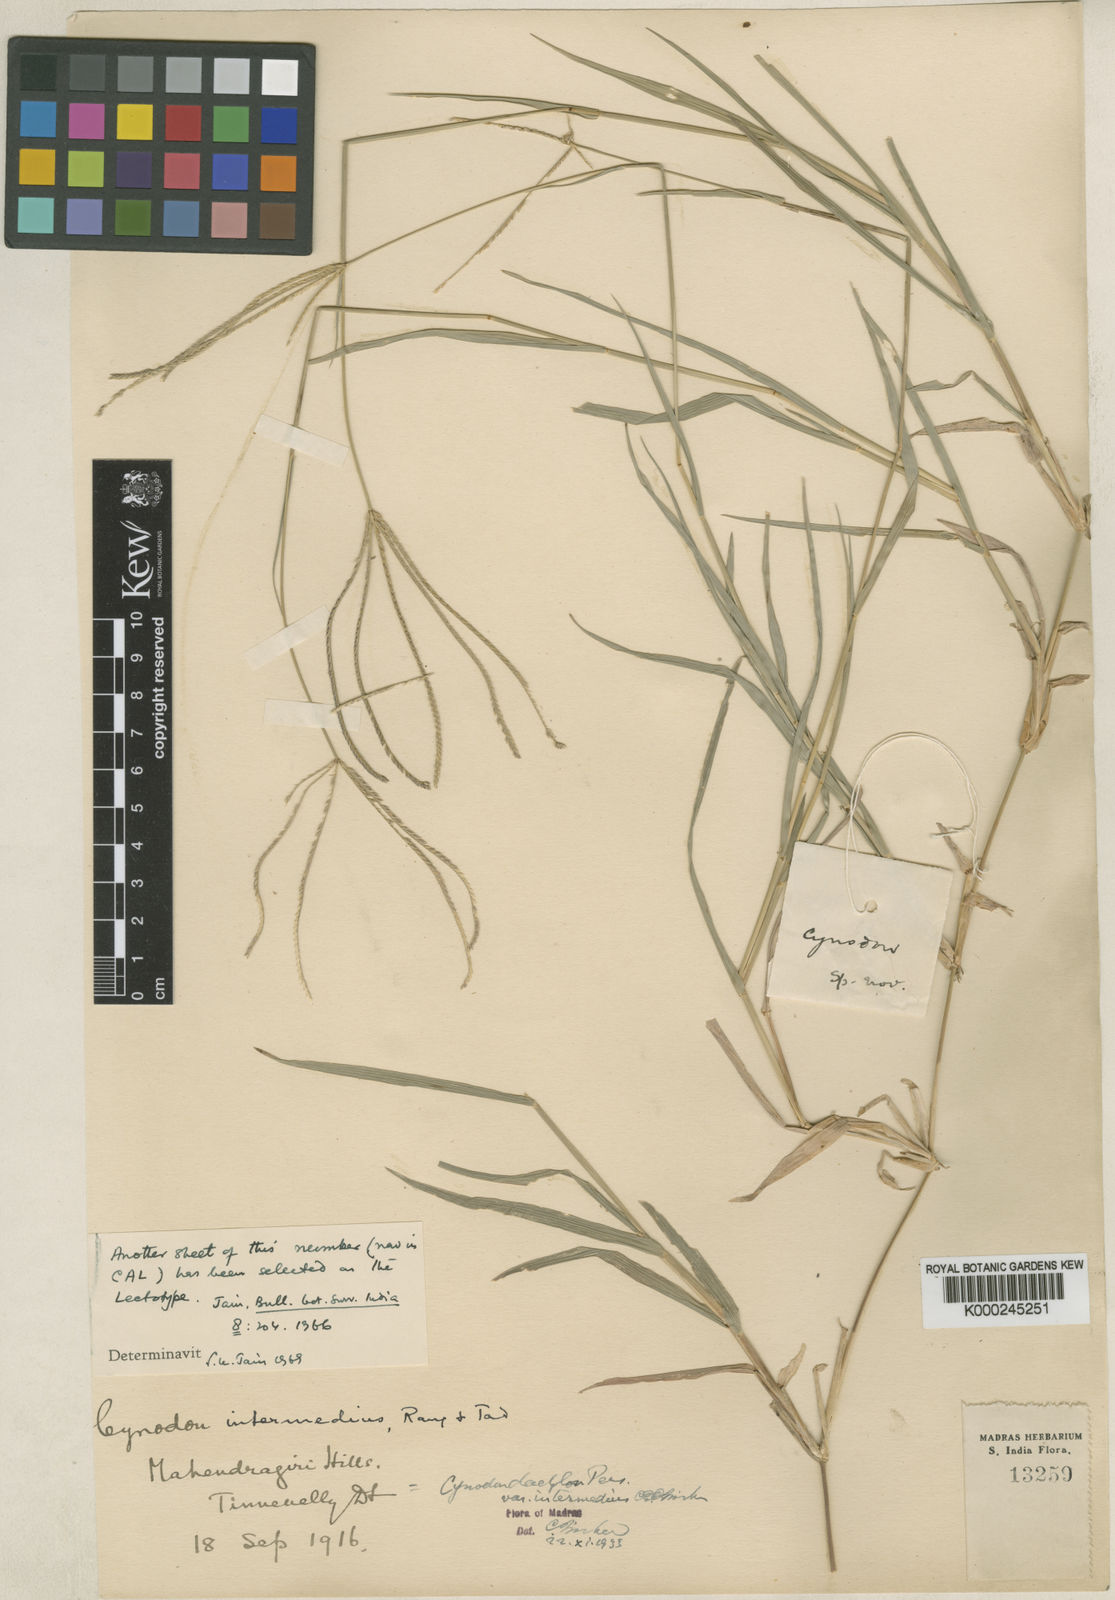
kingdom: Plantae
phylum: Tracheophyta
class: Liliopsida
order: Poales
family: Poaceae
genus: Cynodon
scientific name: Cynodon
